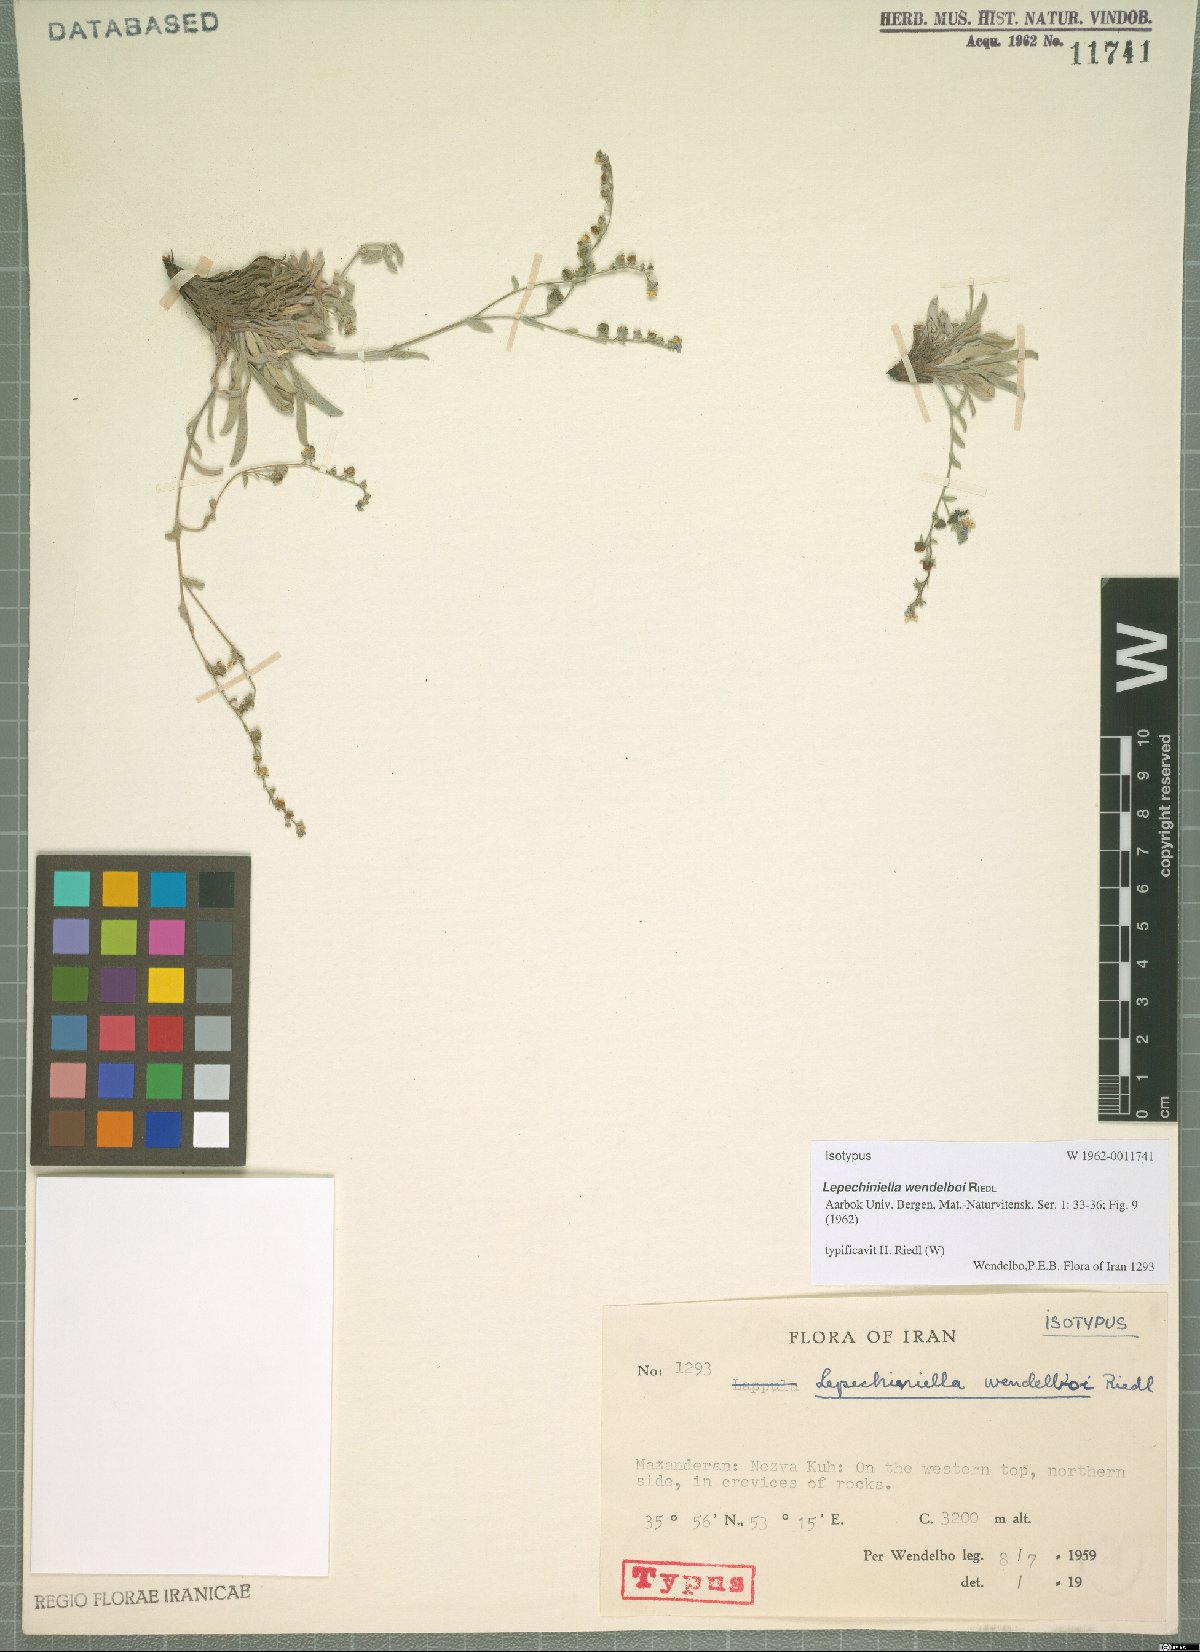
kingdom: Plantae
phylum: Tracheophyta
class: Magnoliopsida
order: Boraginales
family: Boraginaceae
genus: Lepechiniella
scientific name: Lepechiniella persica
